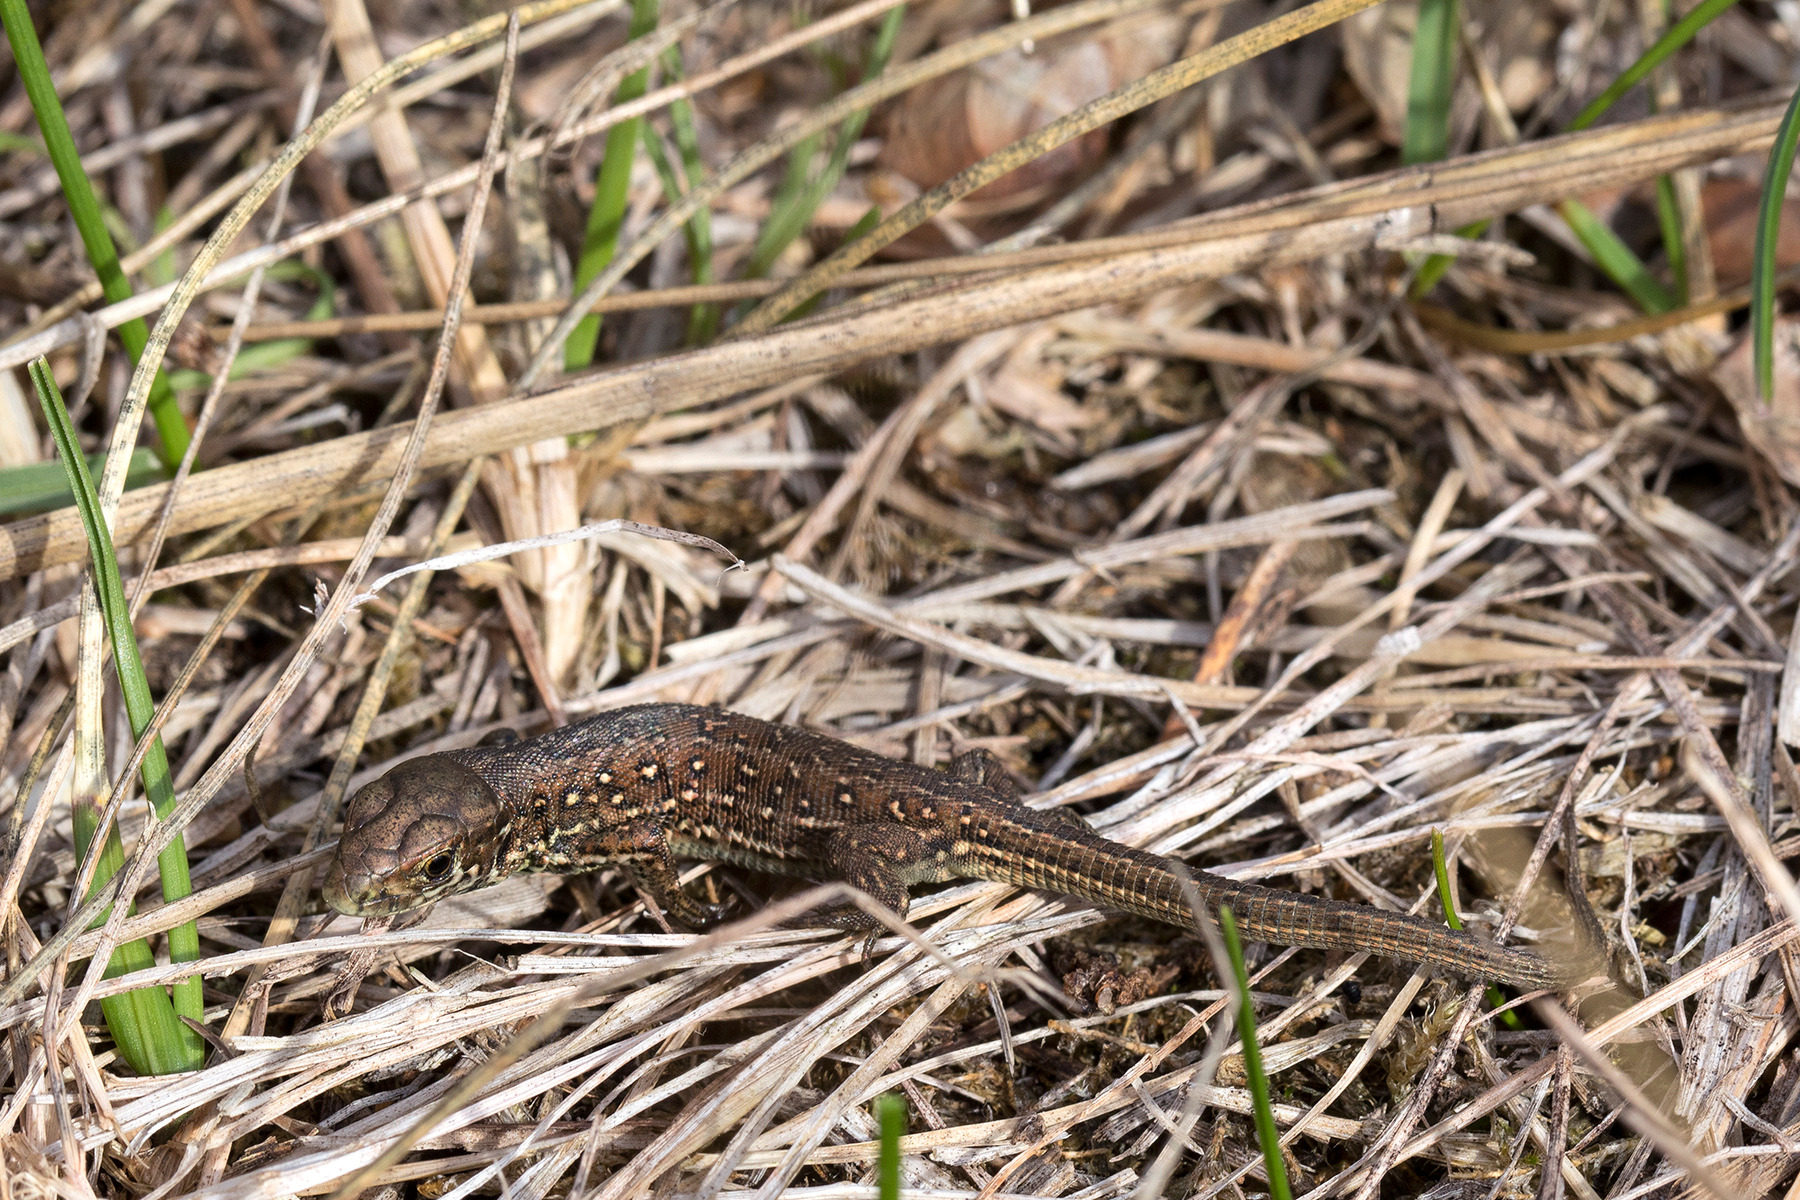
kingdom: Animalia
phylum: Chordata
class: Squamata
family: Lacertidae
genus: Lacerta
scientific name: Lacerta agilis
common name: Markfirben
